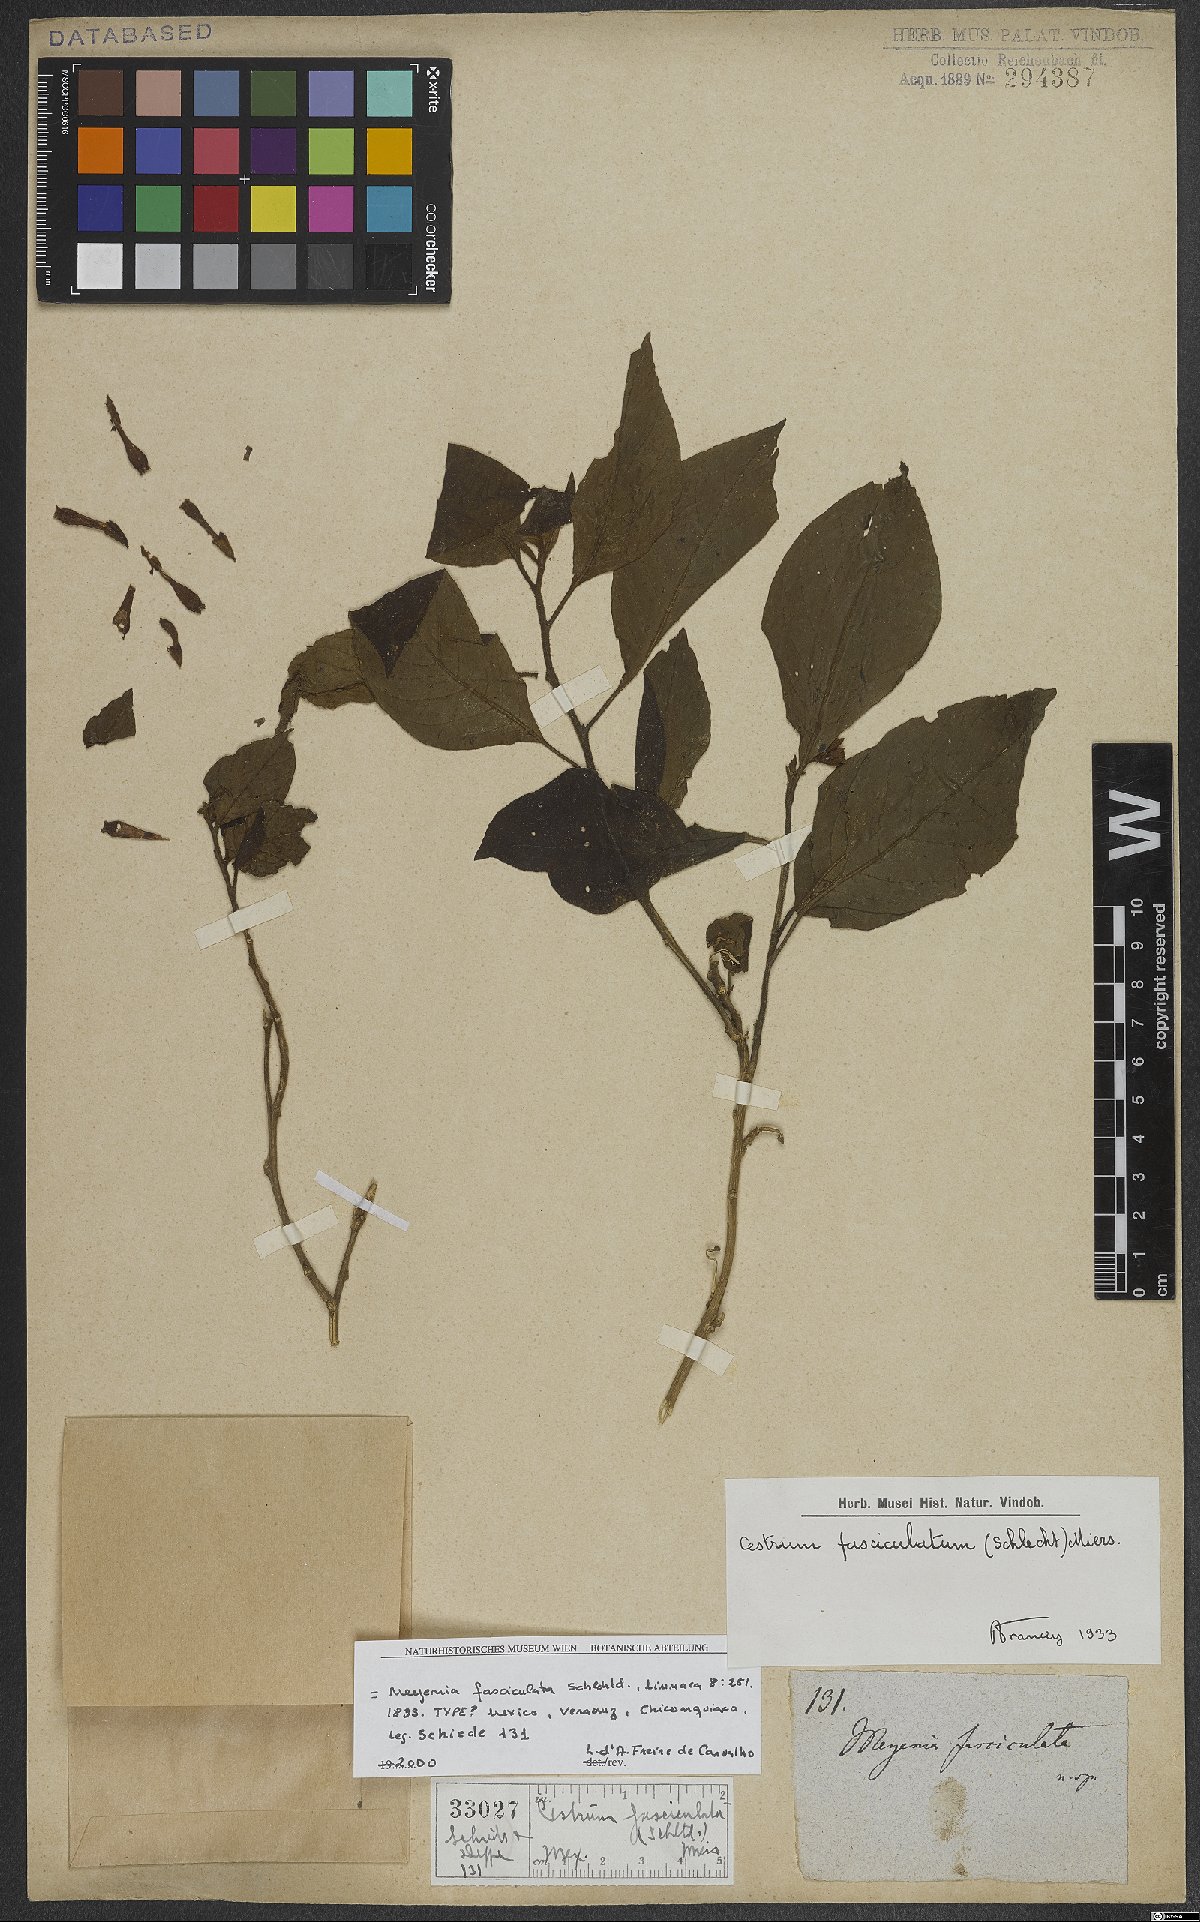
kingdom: Plantae
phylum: Tracheophyta
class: Magnoliopsida
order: Solanales
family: Solanaceae
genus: Cestrum
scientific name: Cestrum fasciculatum
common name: Early jessamine
